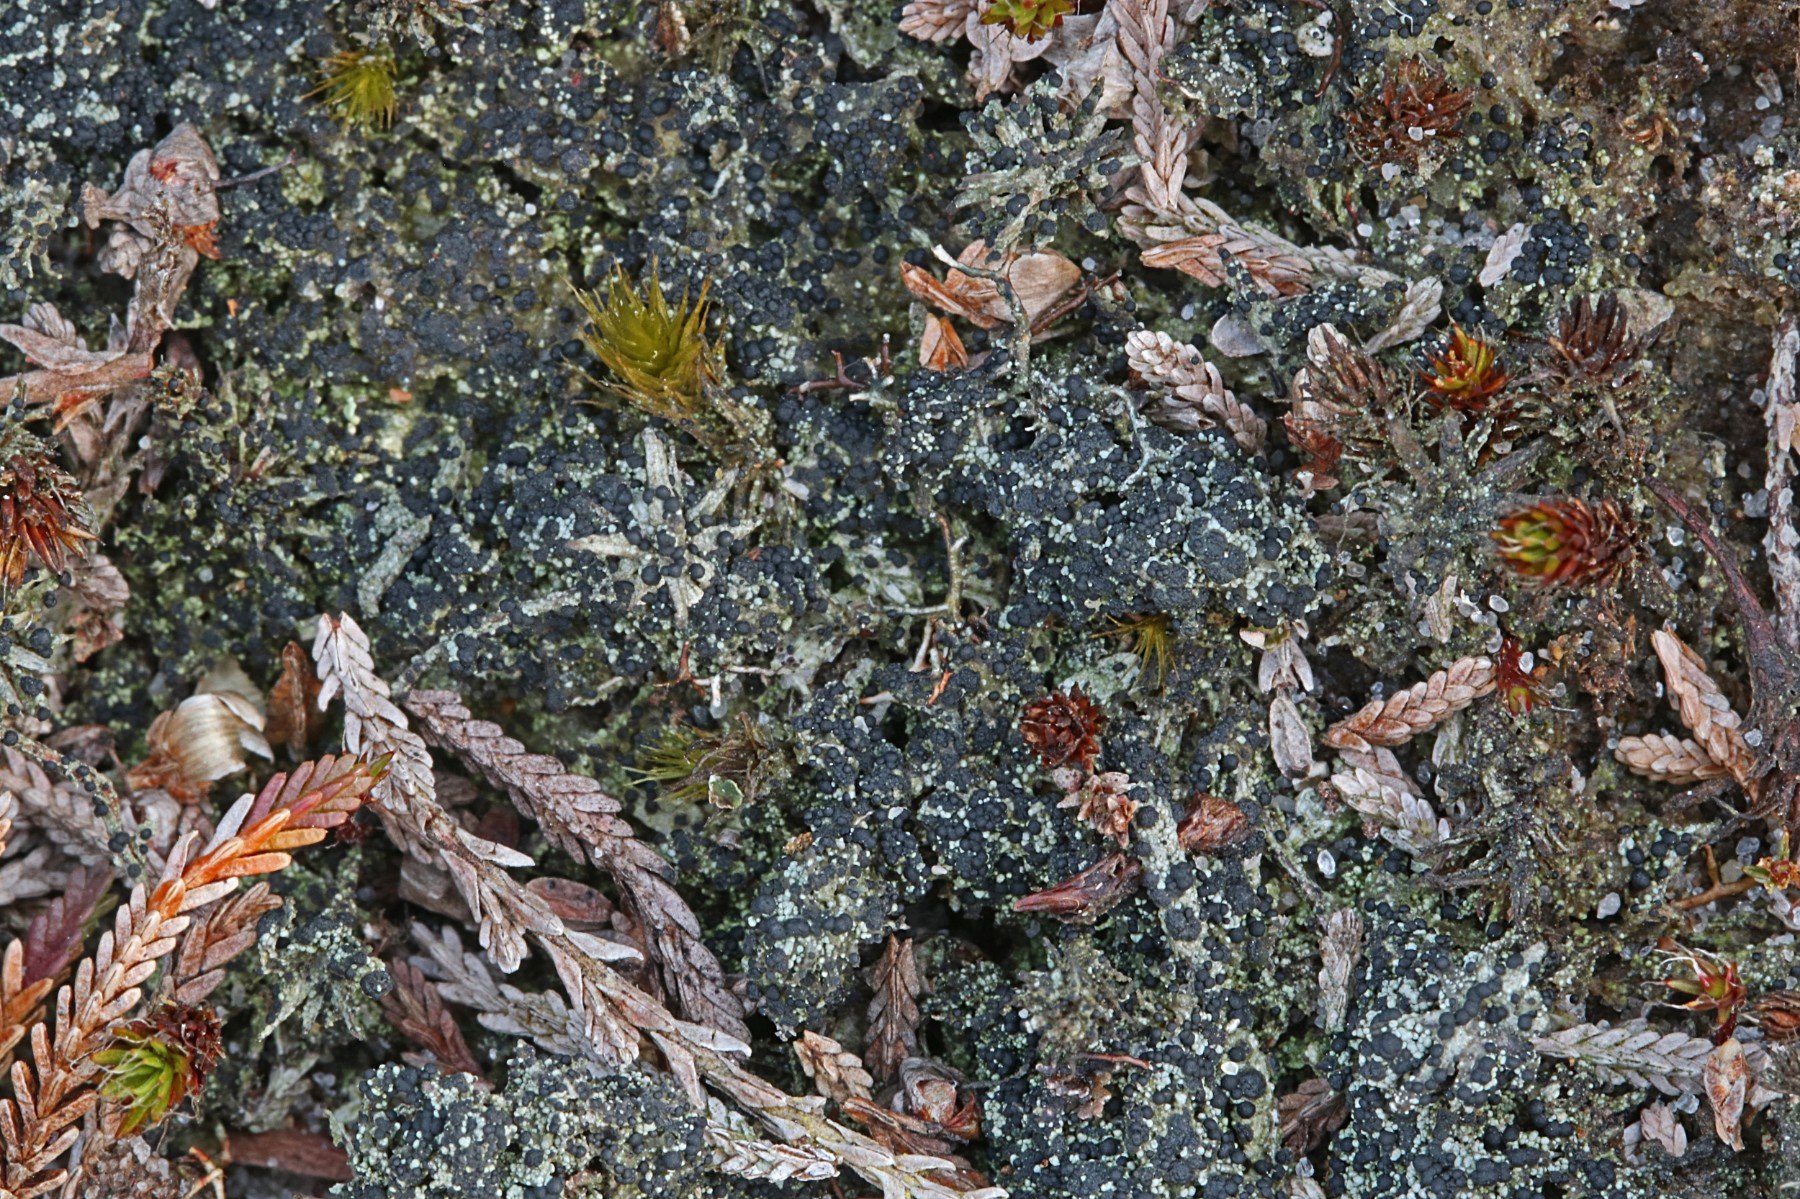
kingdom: Fungi
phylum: Ascomycota
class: Lecanoromycetes
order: Lecanorales
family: Byssolomataceae
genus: Micarea
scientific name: Micarea lignaria
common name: tørve-knaplav
